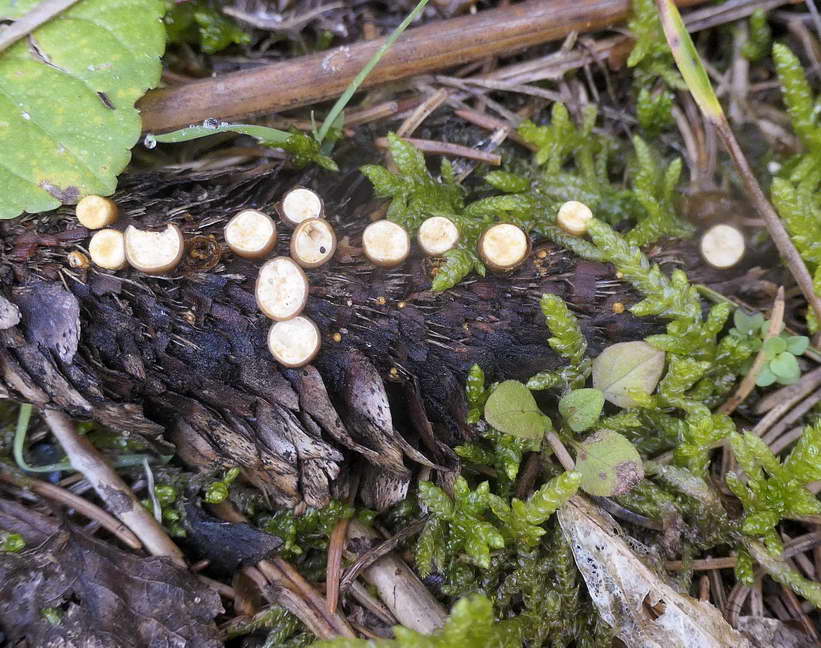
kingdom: Fungi
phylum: Basidiomycota
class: Agaricomycetes
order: Agaricales
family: Nidulariaceae
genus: Crucibulum
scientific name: Crucibulum crucibuliforme
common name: krukkesvamp
